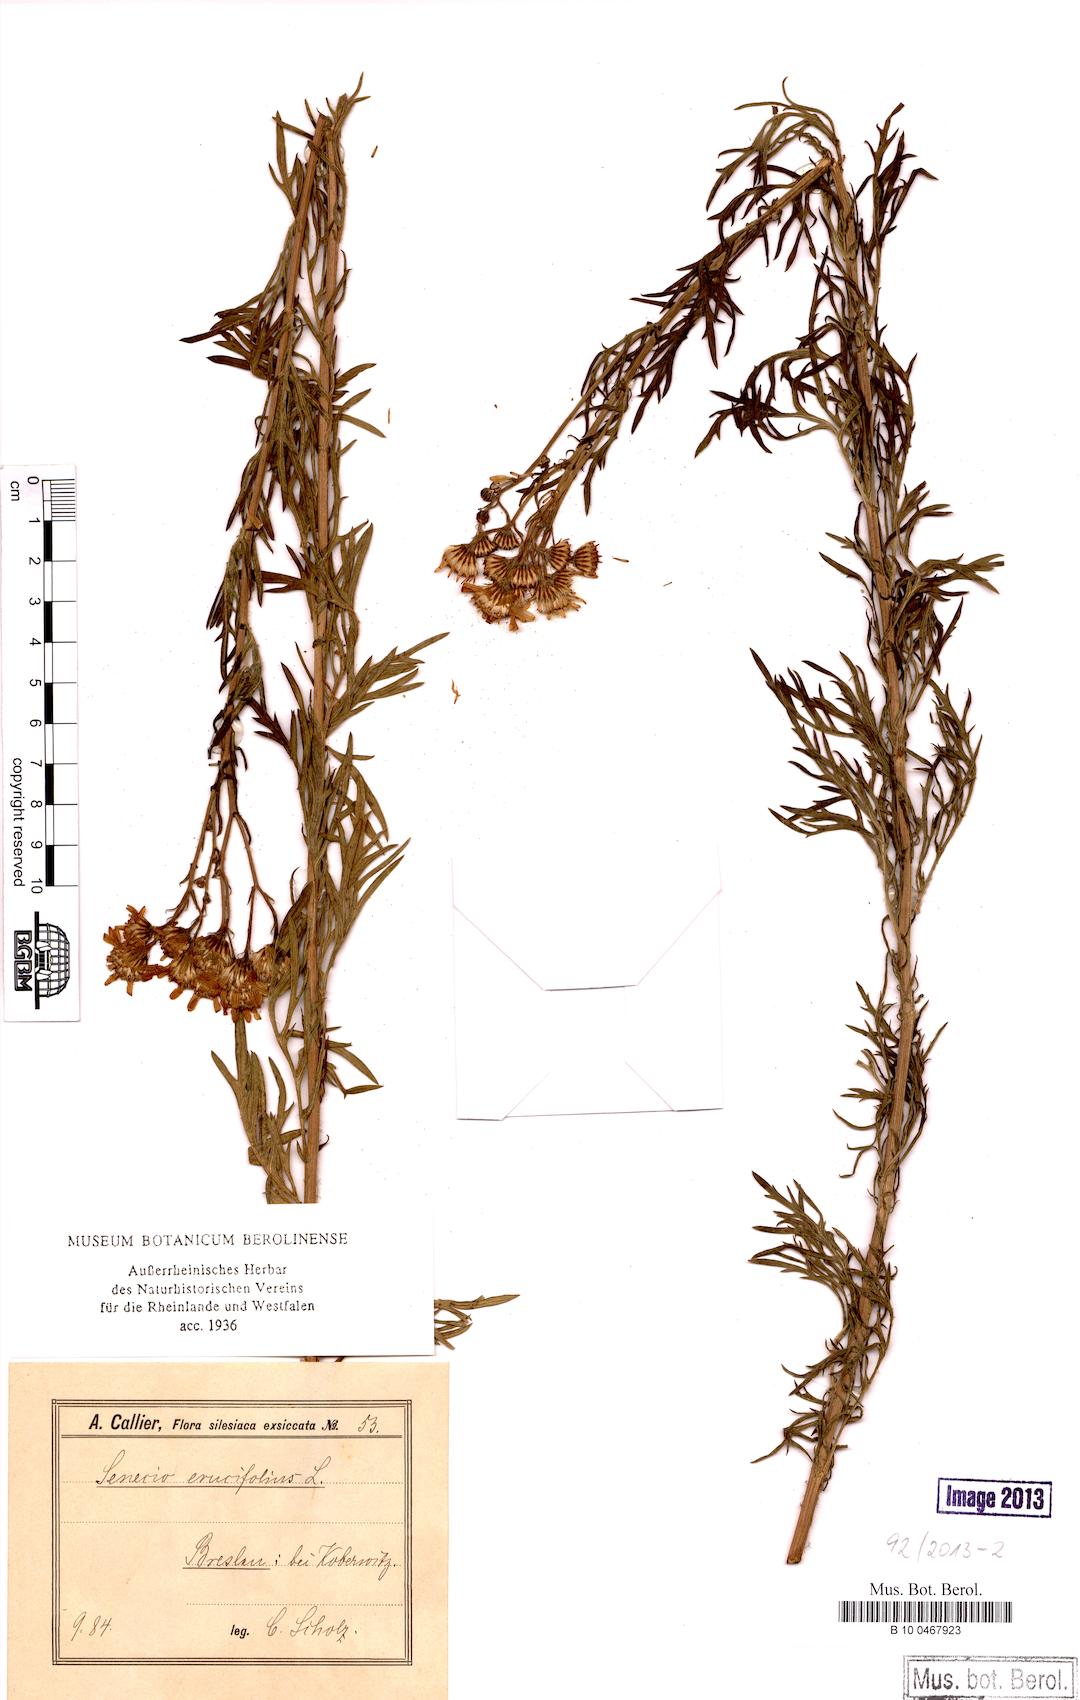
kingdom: Plantae
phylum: Tracheophyta
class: Magnoliopsida
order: Asterales
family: Asteraceae
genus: Jacobaea
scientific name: Jacobaea erucifolia
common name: Hoary ragwort
